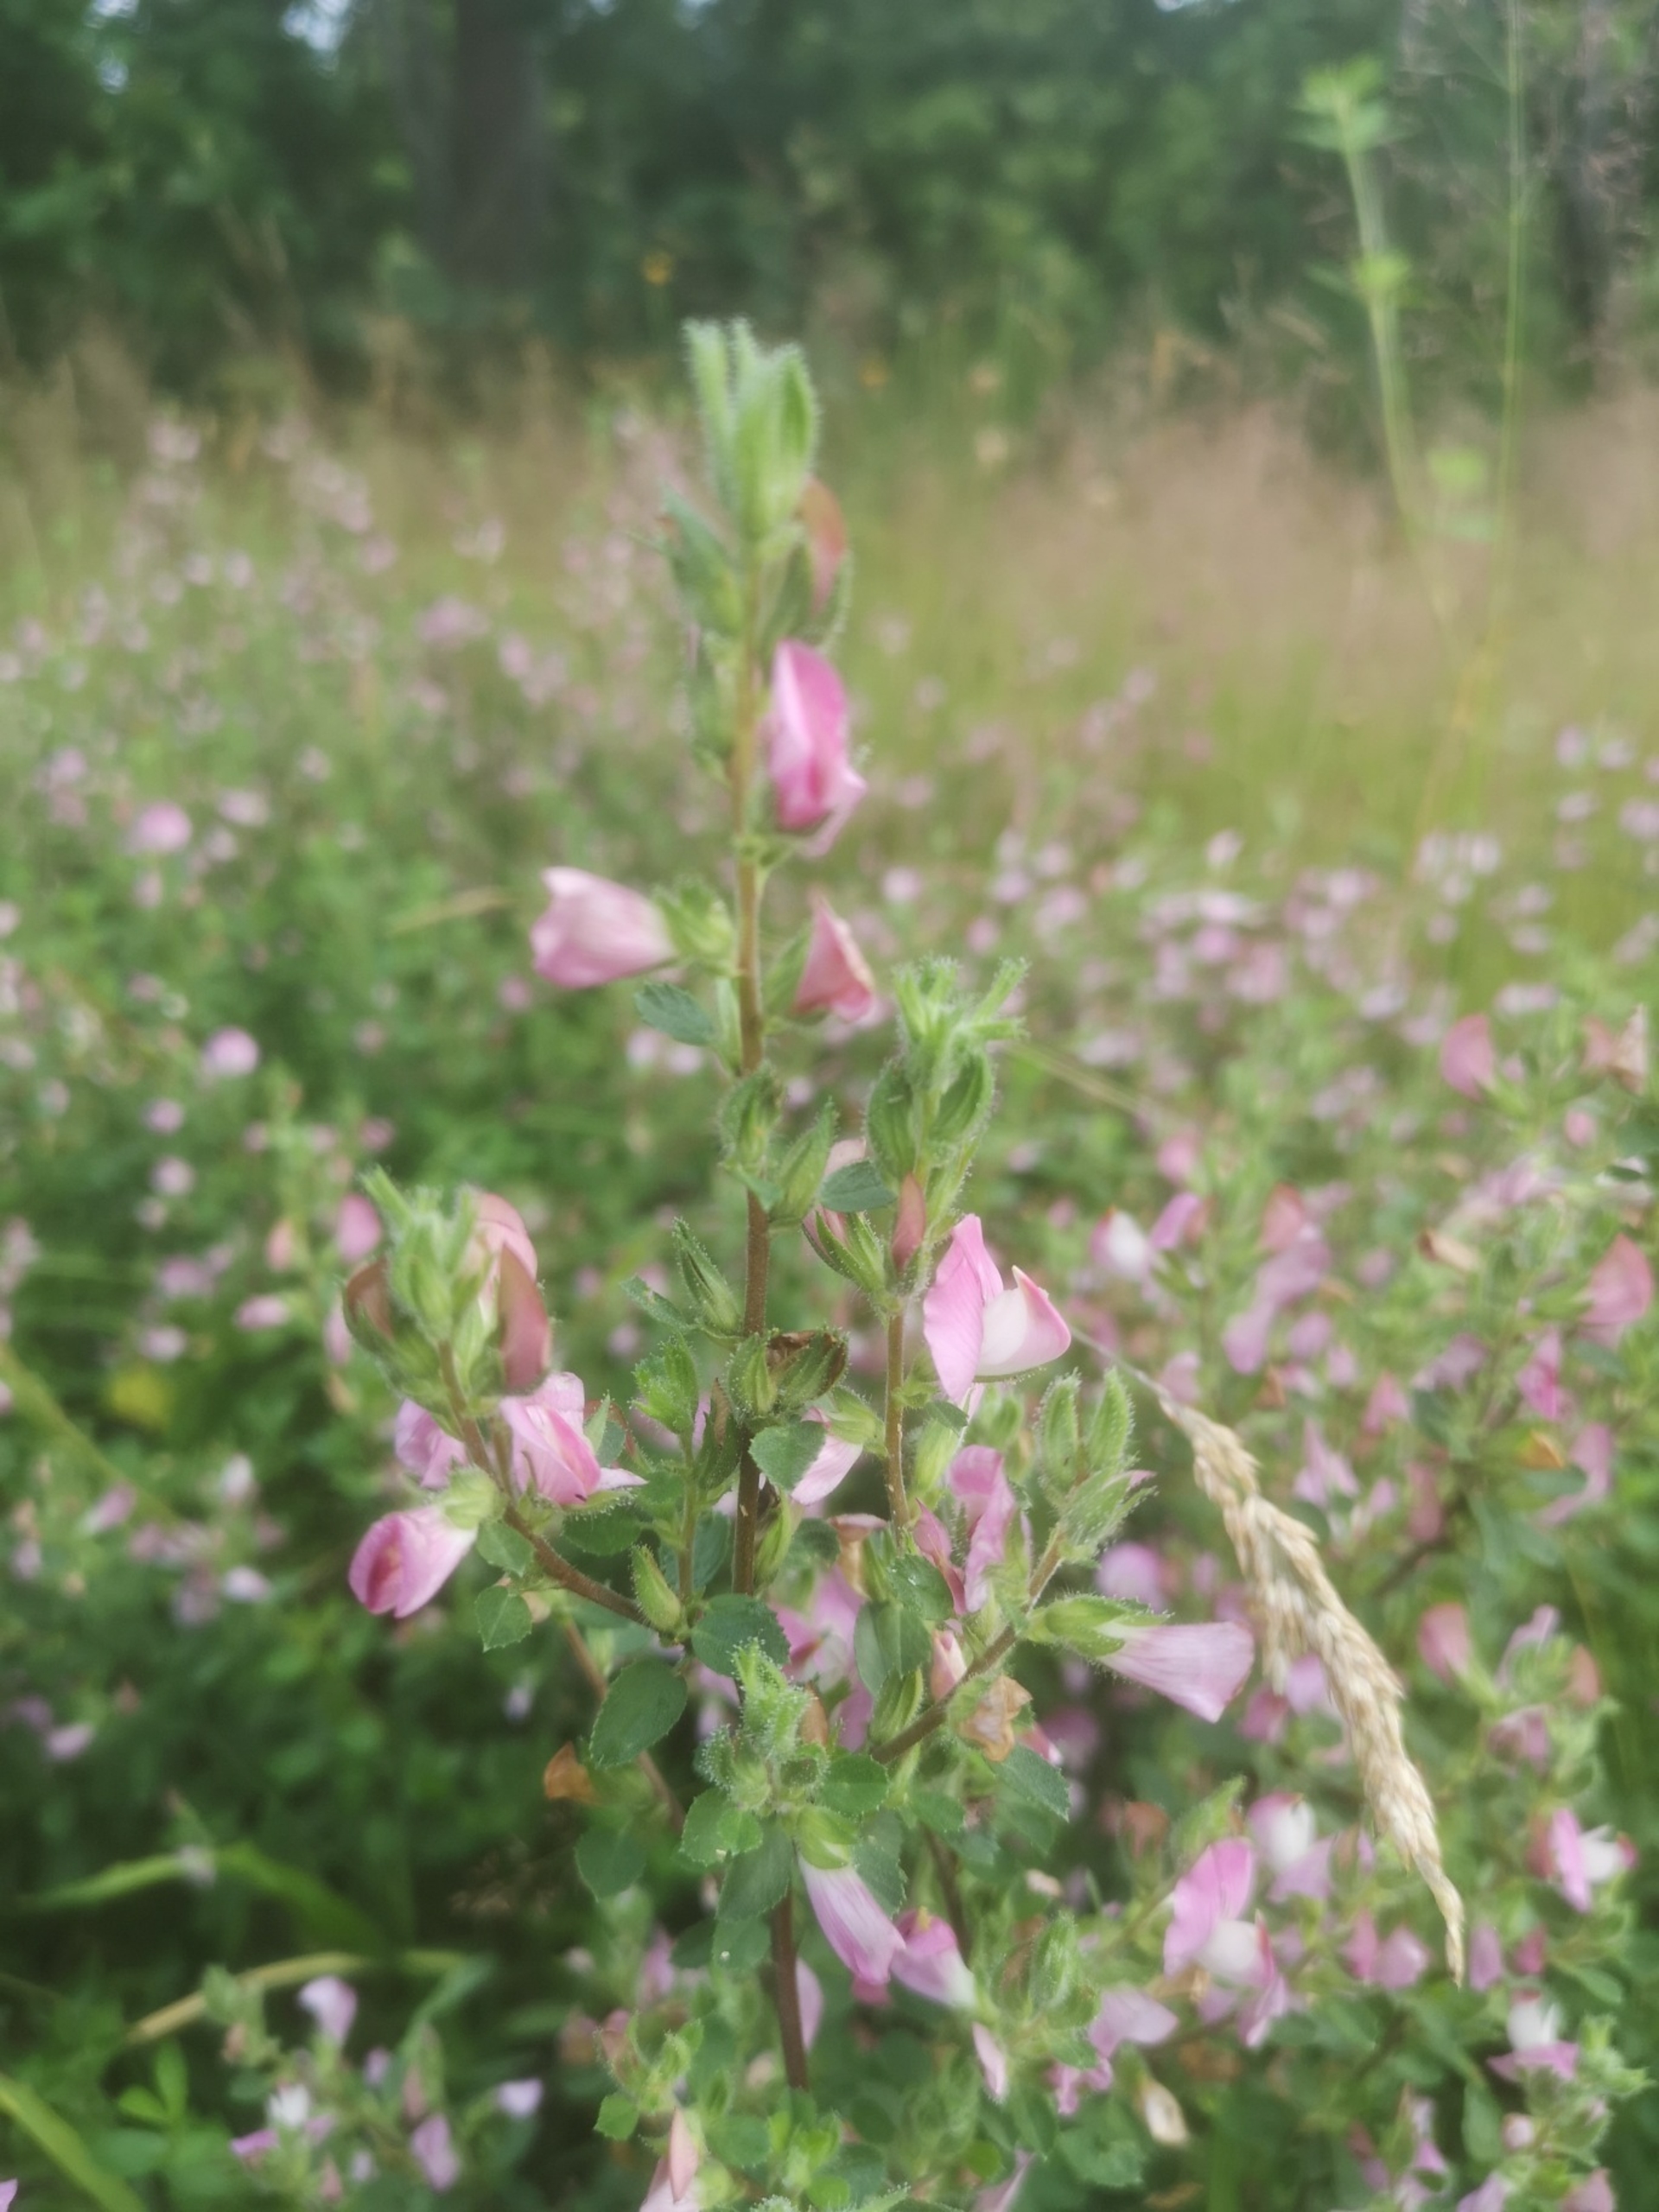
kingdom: Plantae
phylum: Tracheophyta
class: Magnoliopsida
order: Fabales
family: Fabaceae
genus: Ononis
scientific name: Ononis spinosa
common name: Mark-krageklo
